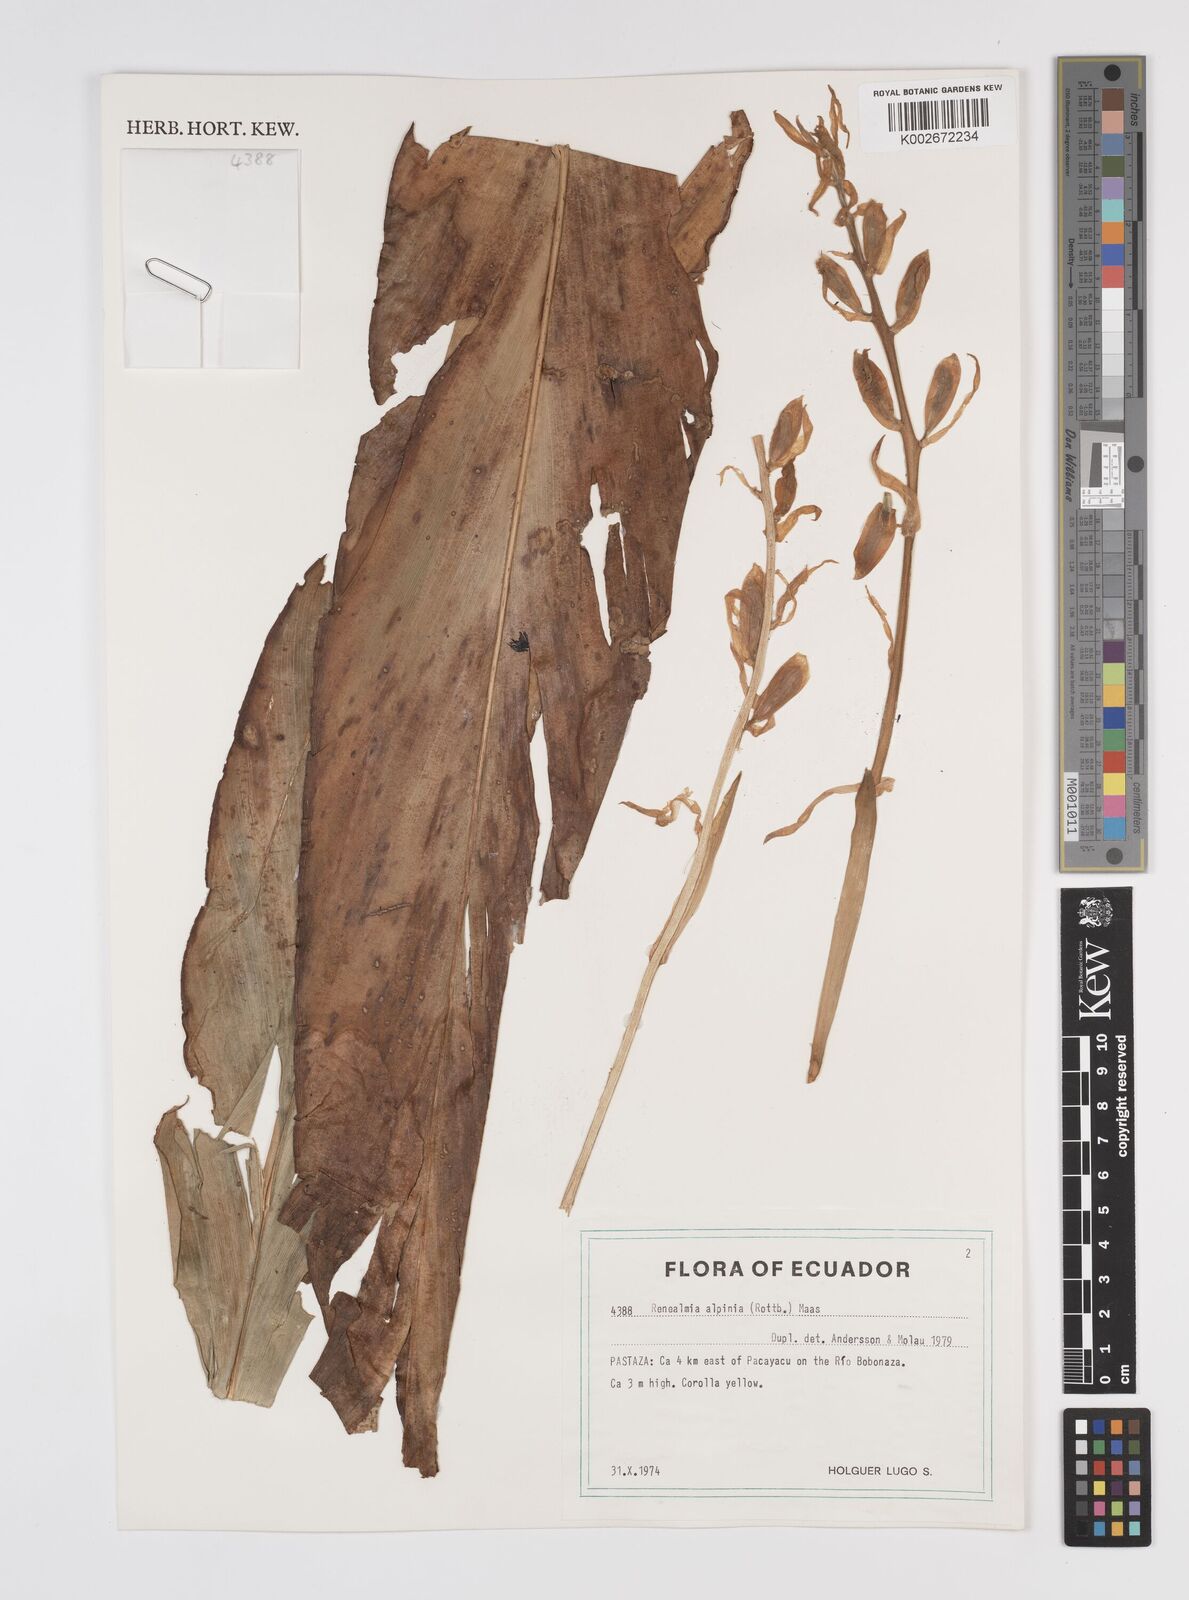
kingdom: Plantae
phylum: Tracheophyta
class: Liliopsida
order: Zingiberales
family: Zingiberaceae
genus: Renealmia
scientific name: Renealmia alpinia
